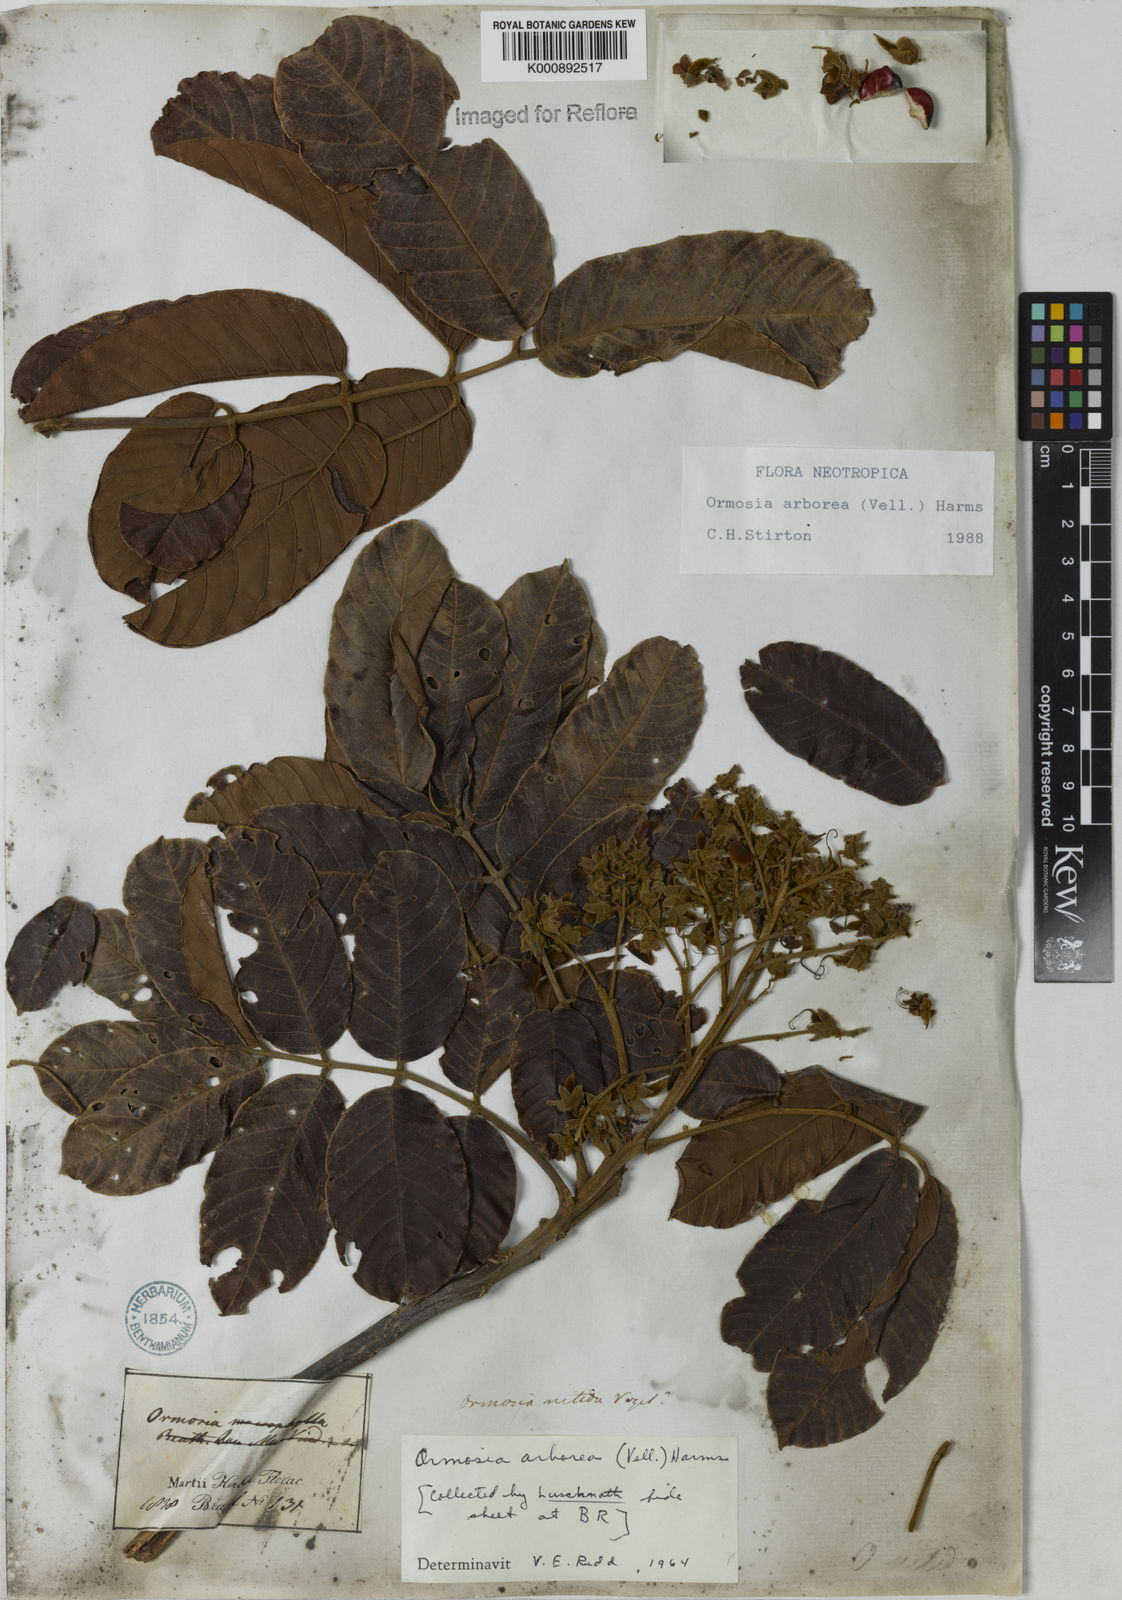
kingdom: Plantae
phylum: Tracheophyta
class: Magnoliopsida
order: Fabales
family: Fabaceae
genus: Ormosia
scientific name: Ormosia arborea
